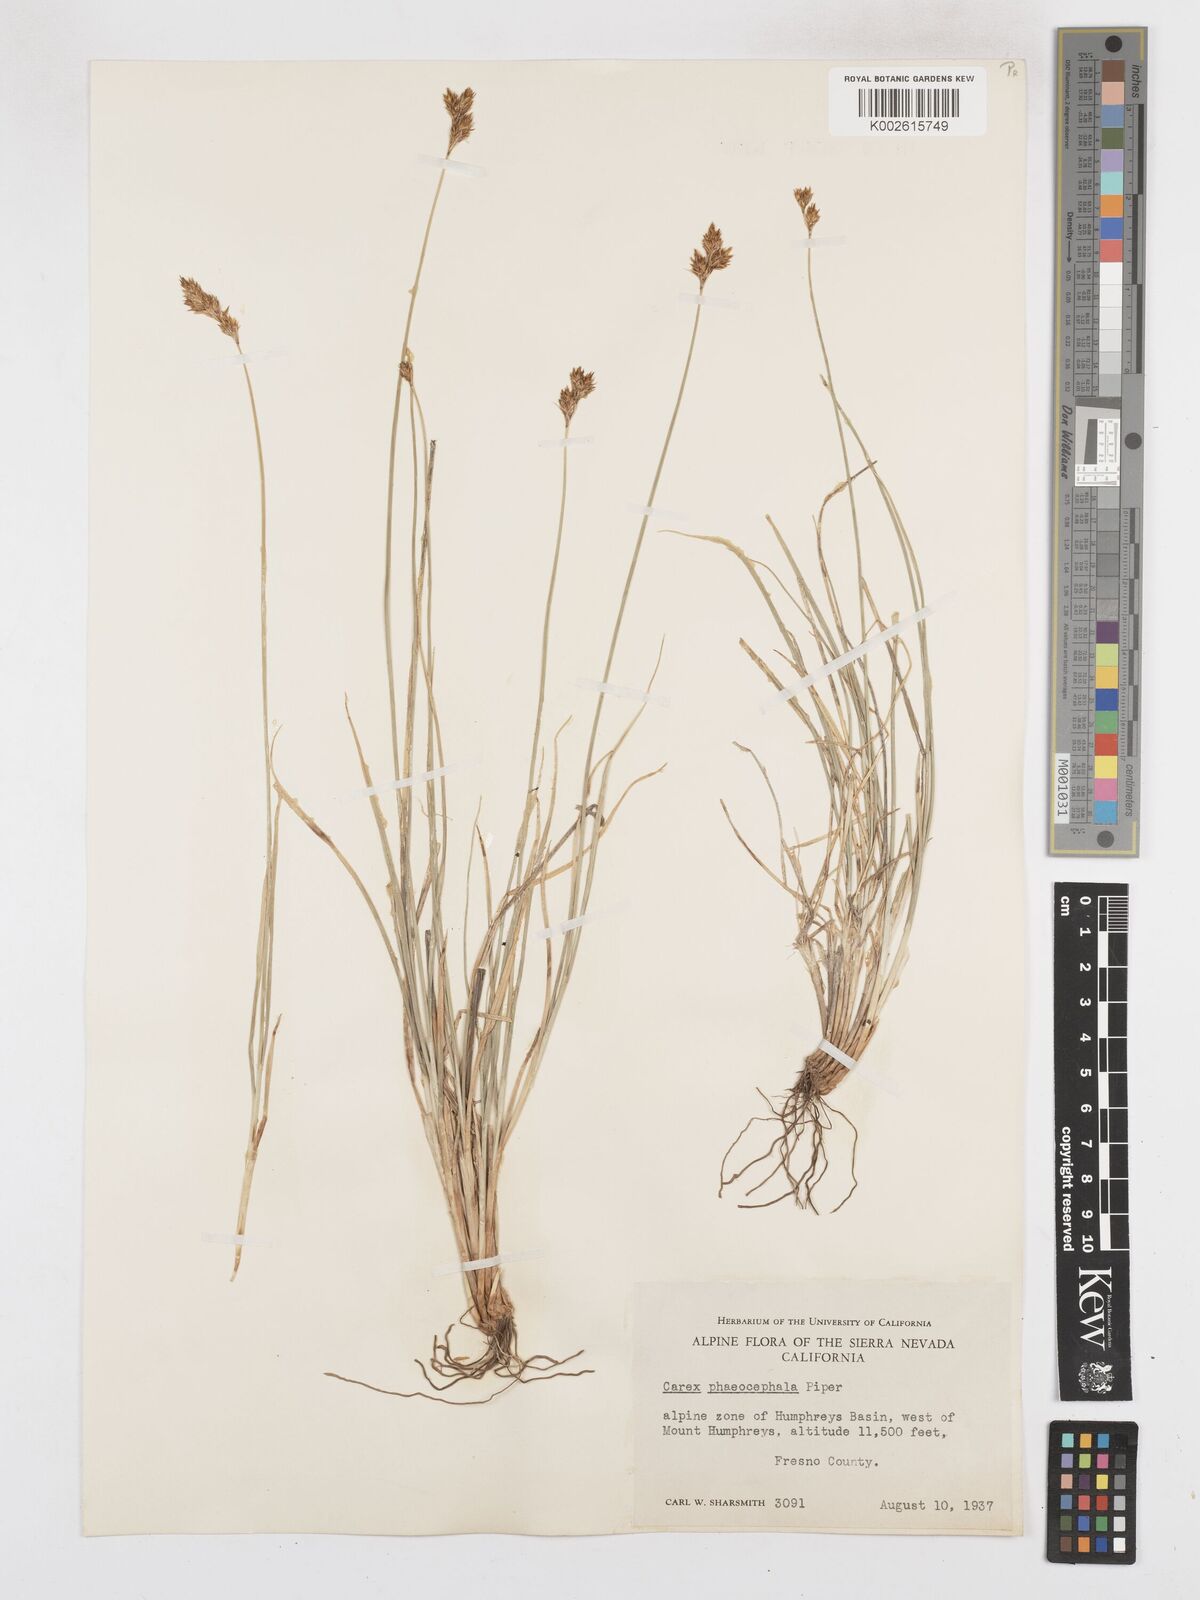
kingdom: Plantae
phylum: Tracheophyta
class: Liliopsida
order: Poales
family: Cyperaceae
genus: Carex
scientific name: Carex phaeocephala
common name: Brown-head sedge
